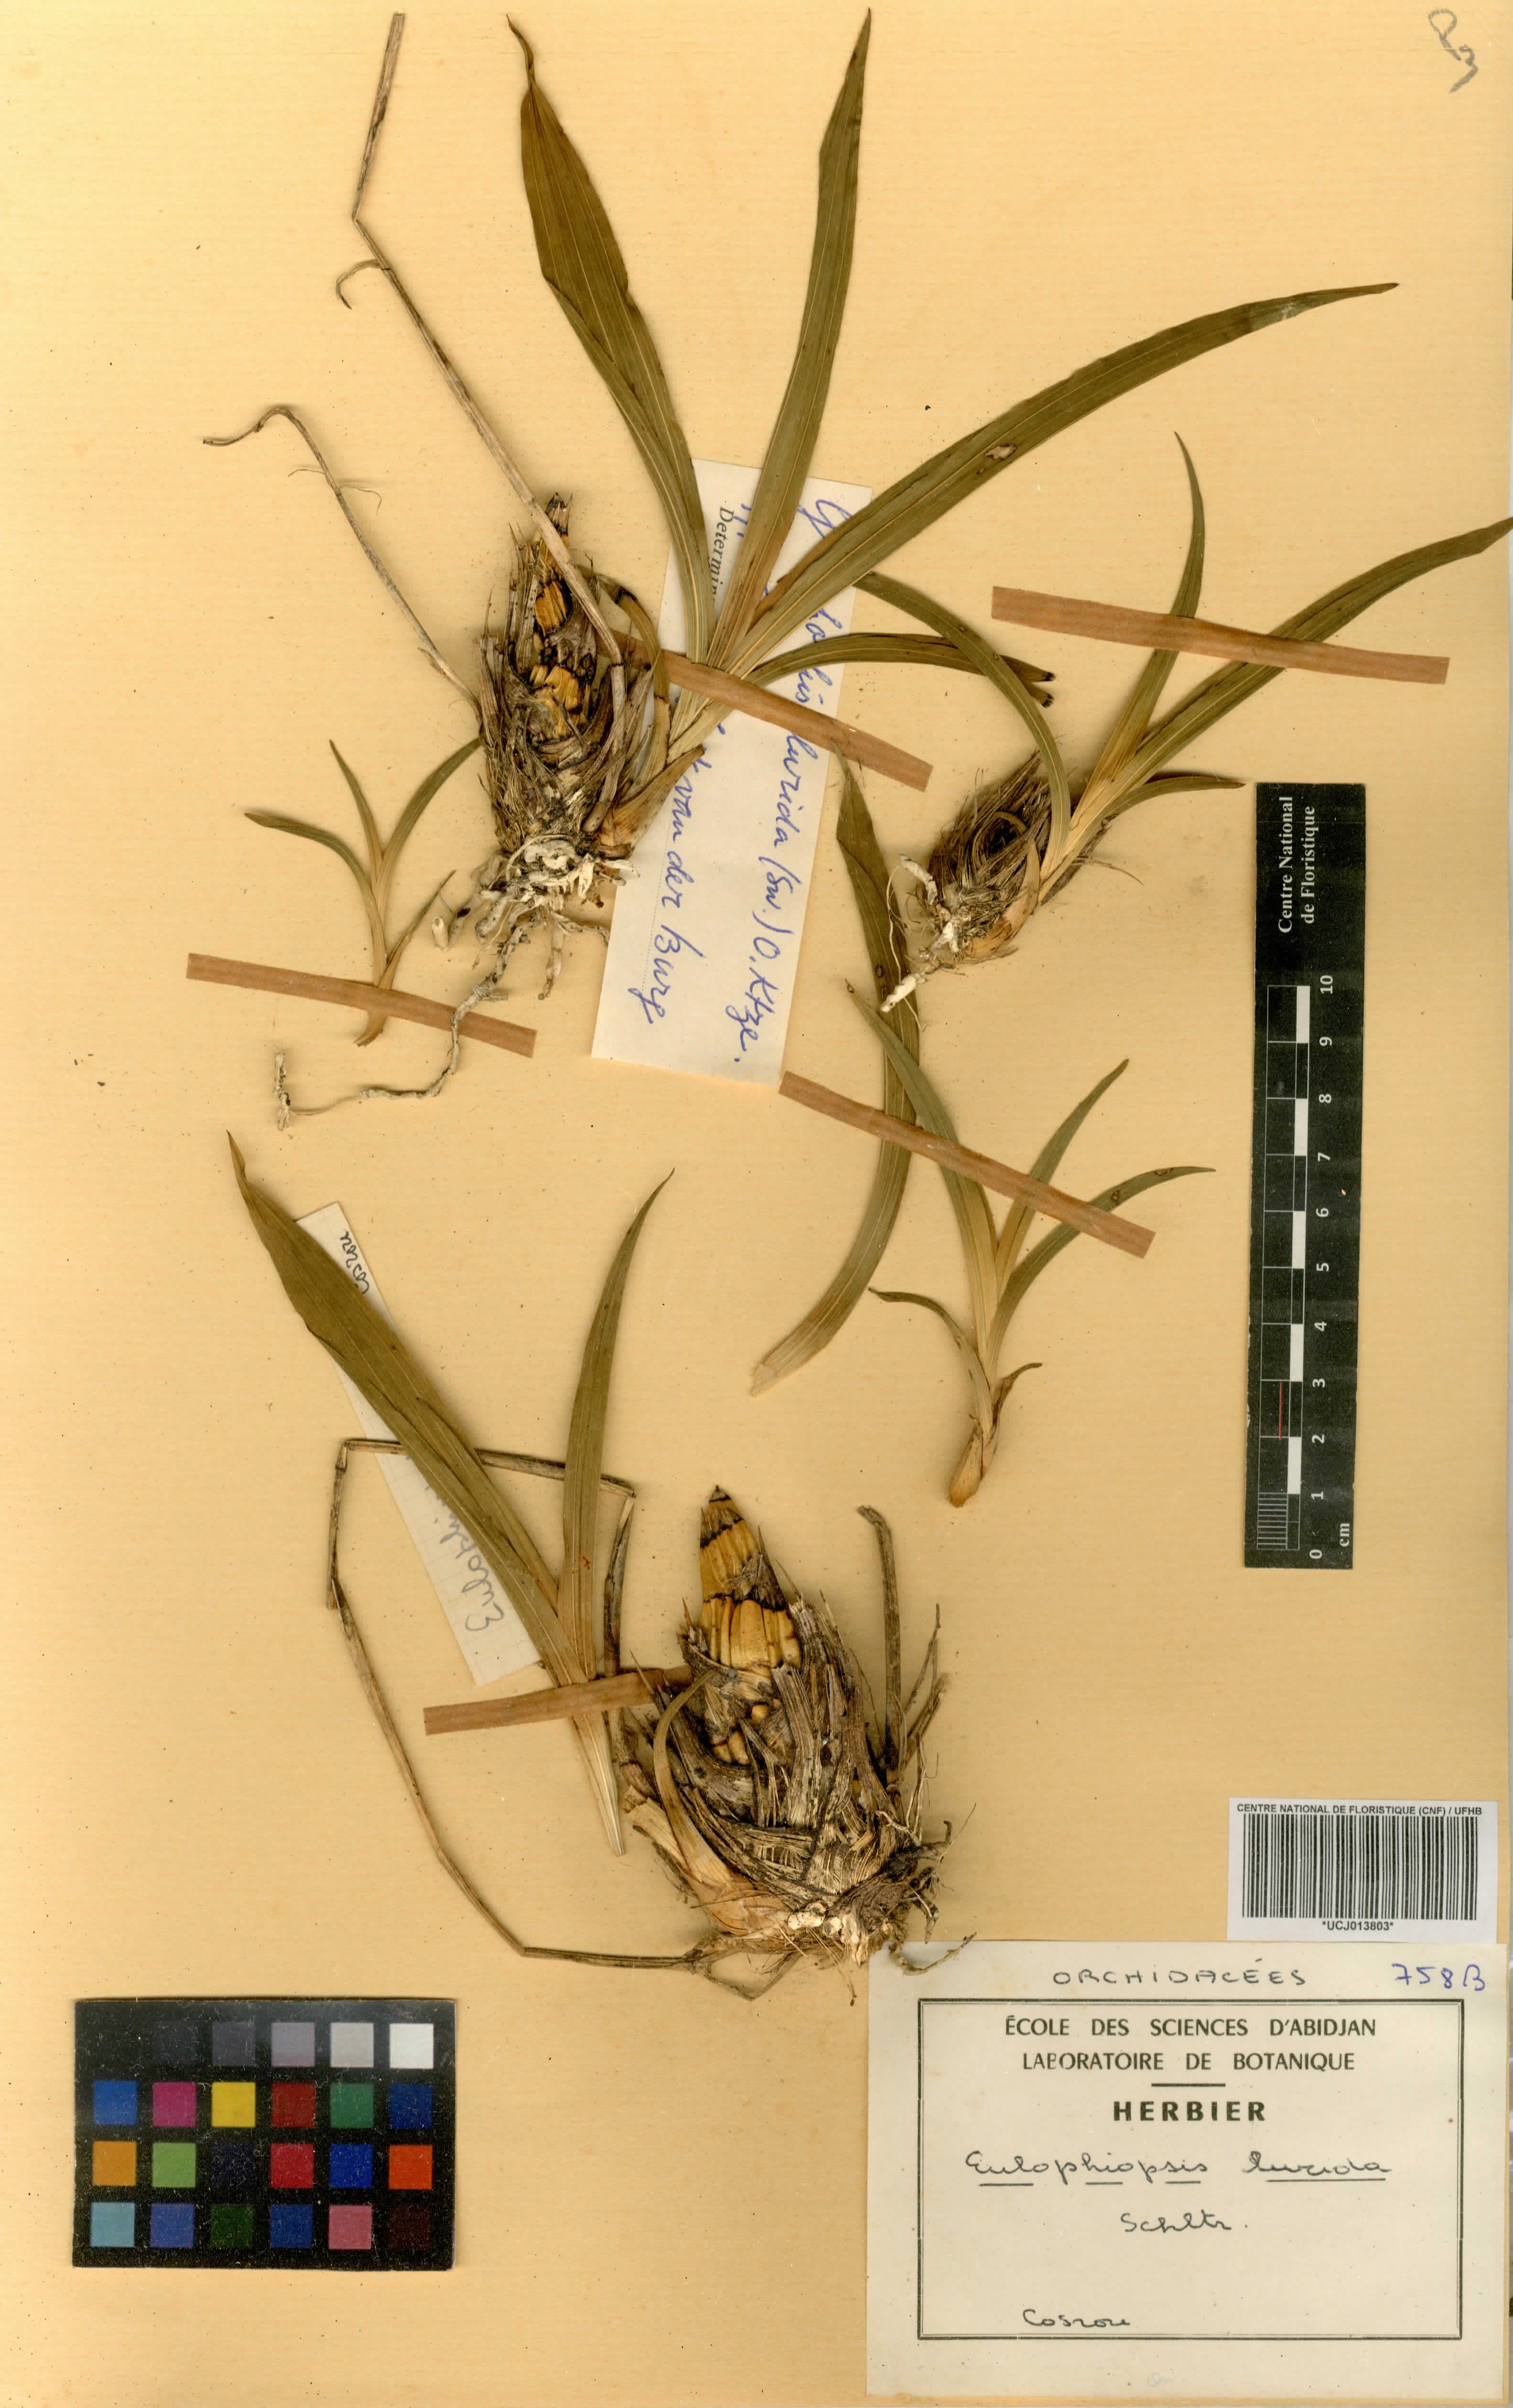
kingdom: Plantae
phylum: Tracheophyta
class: Liliopsida
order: Asparagales
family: Orchidaceae
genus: Graphorkis
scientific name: Graphorkis lurida
